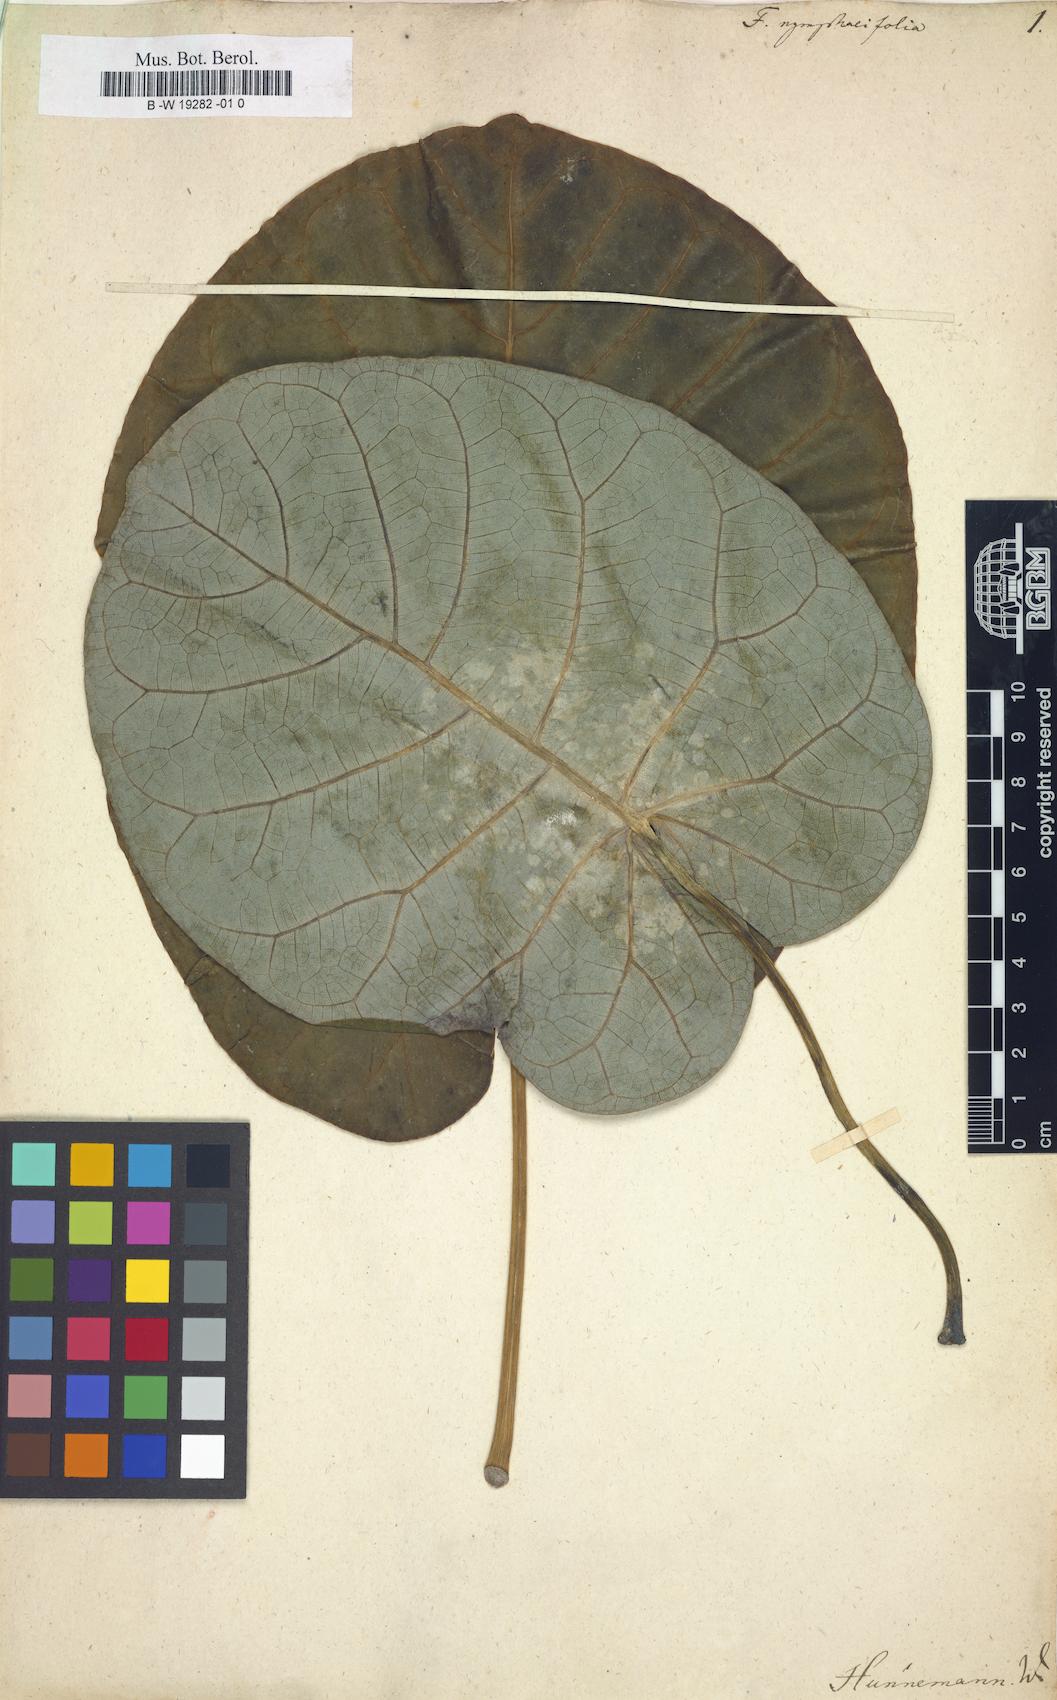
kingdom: Plantae
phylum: Tracheophyta
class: Magnoliopsida
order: Rosales
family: Moraceae
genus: Ficus
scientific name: Ficus nymphaeifolia
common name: Fig
